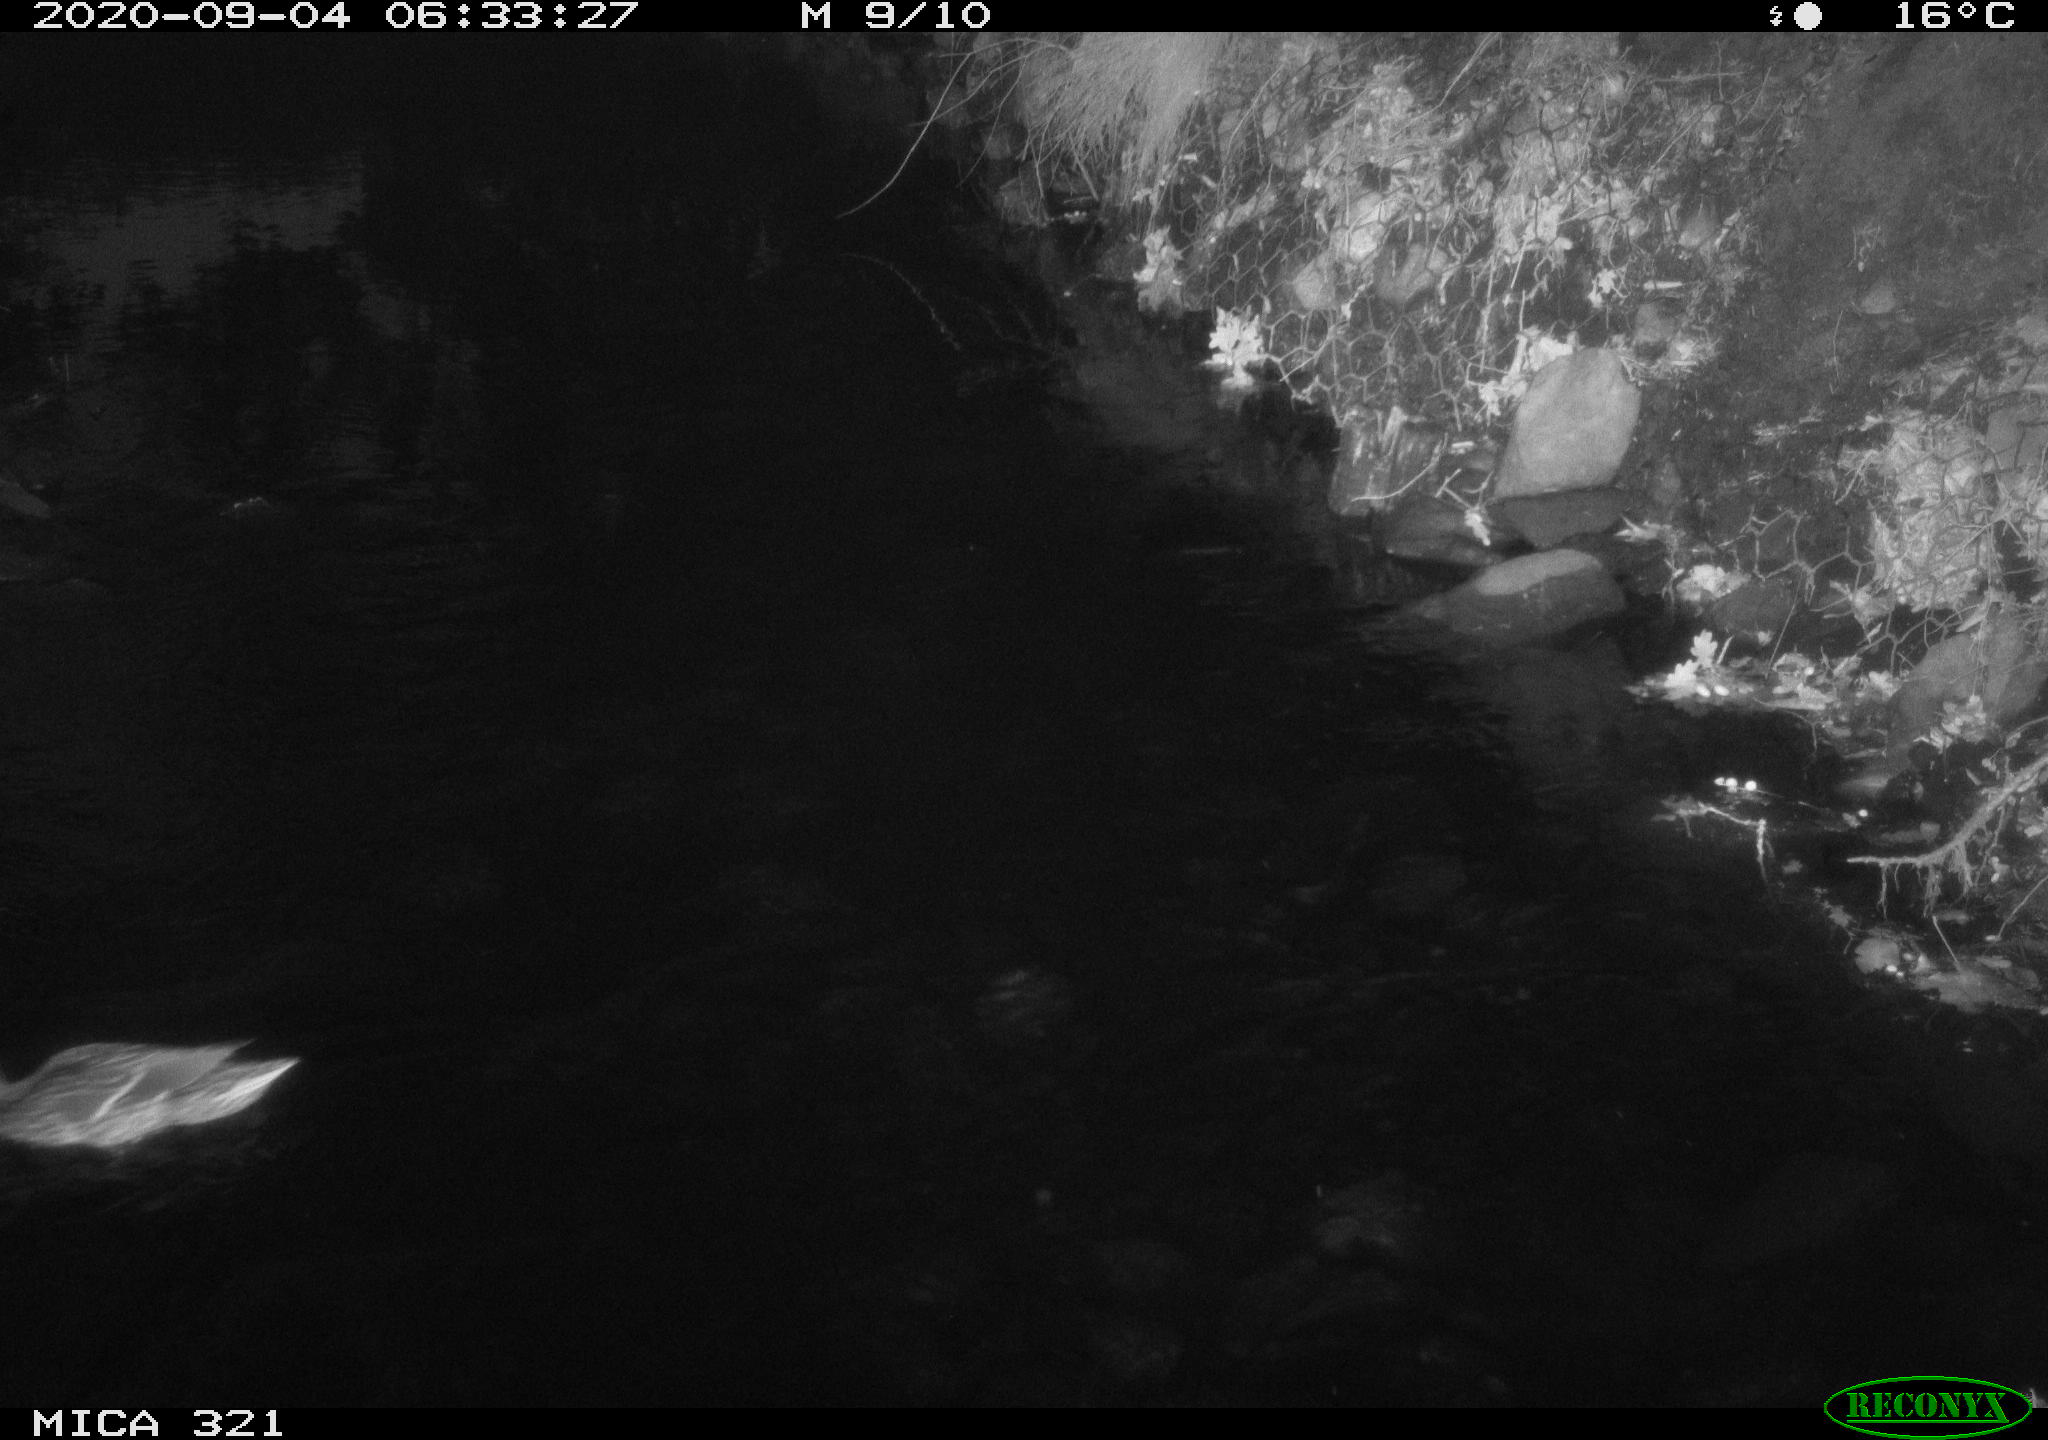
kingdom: Animalia
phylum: Chordata
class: Aves
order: Anseriformes
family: Anatidae
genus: Anas
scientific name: Anas platyrhynchos
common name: Mallard
